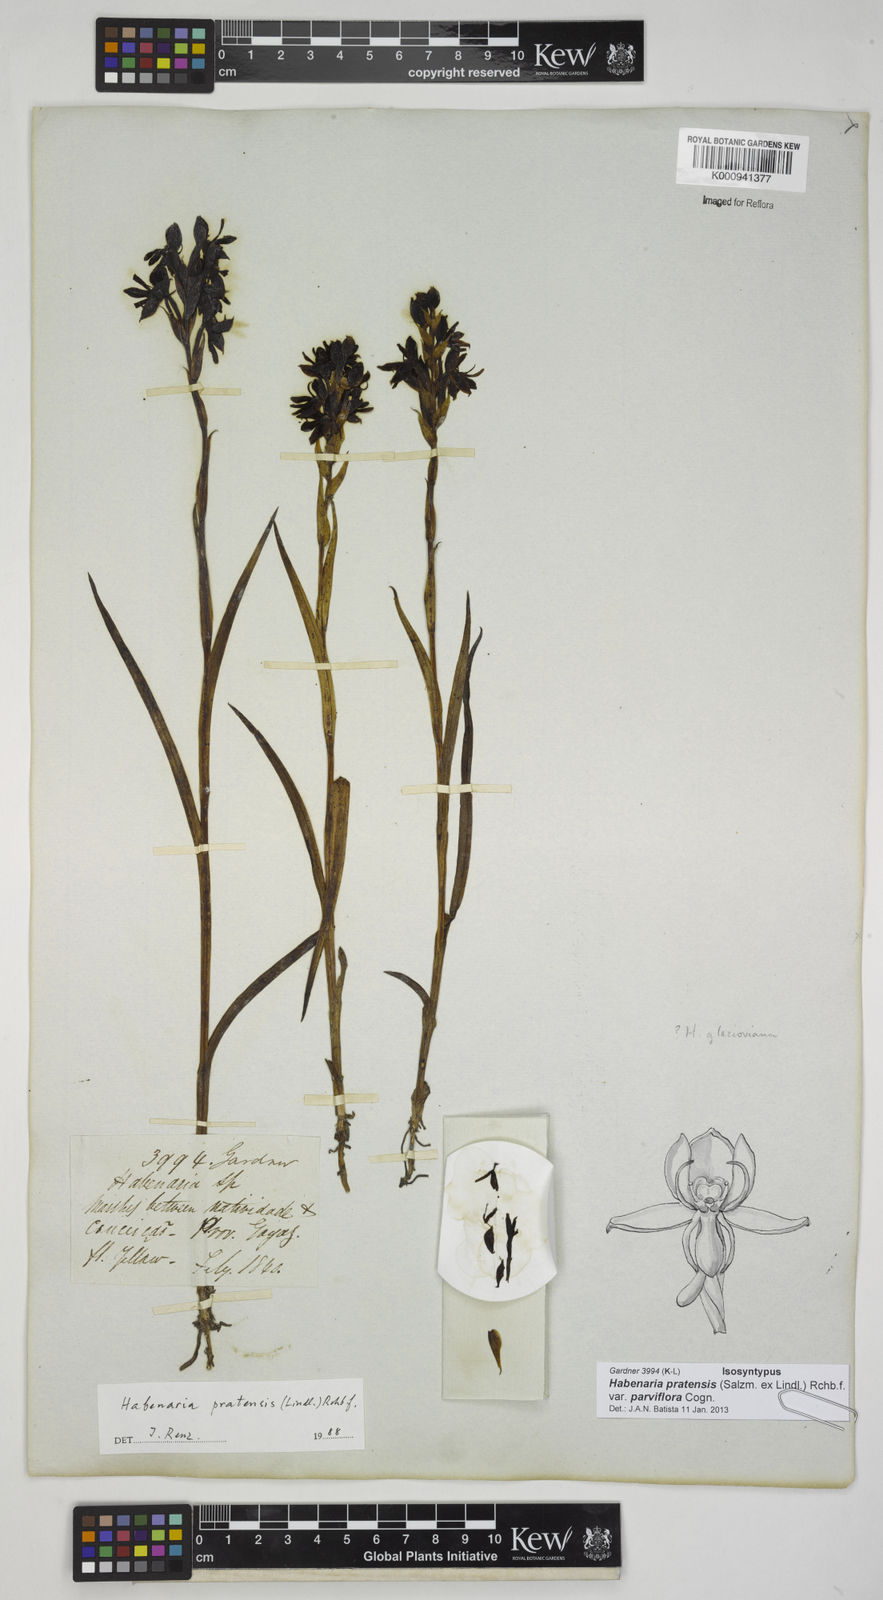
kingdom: Plantae
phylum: Tracheophyta
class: Liliopsida
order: Asparagales
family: Orchidaceae
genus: Habenaria
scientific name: Habenaria pratensis
